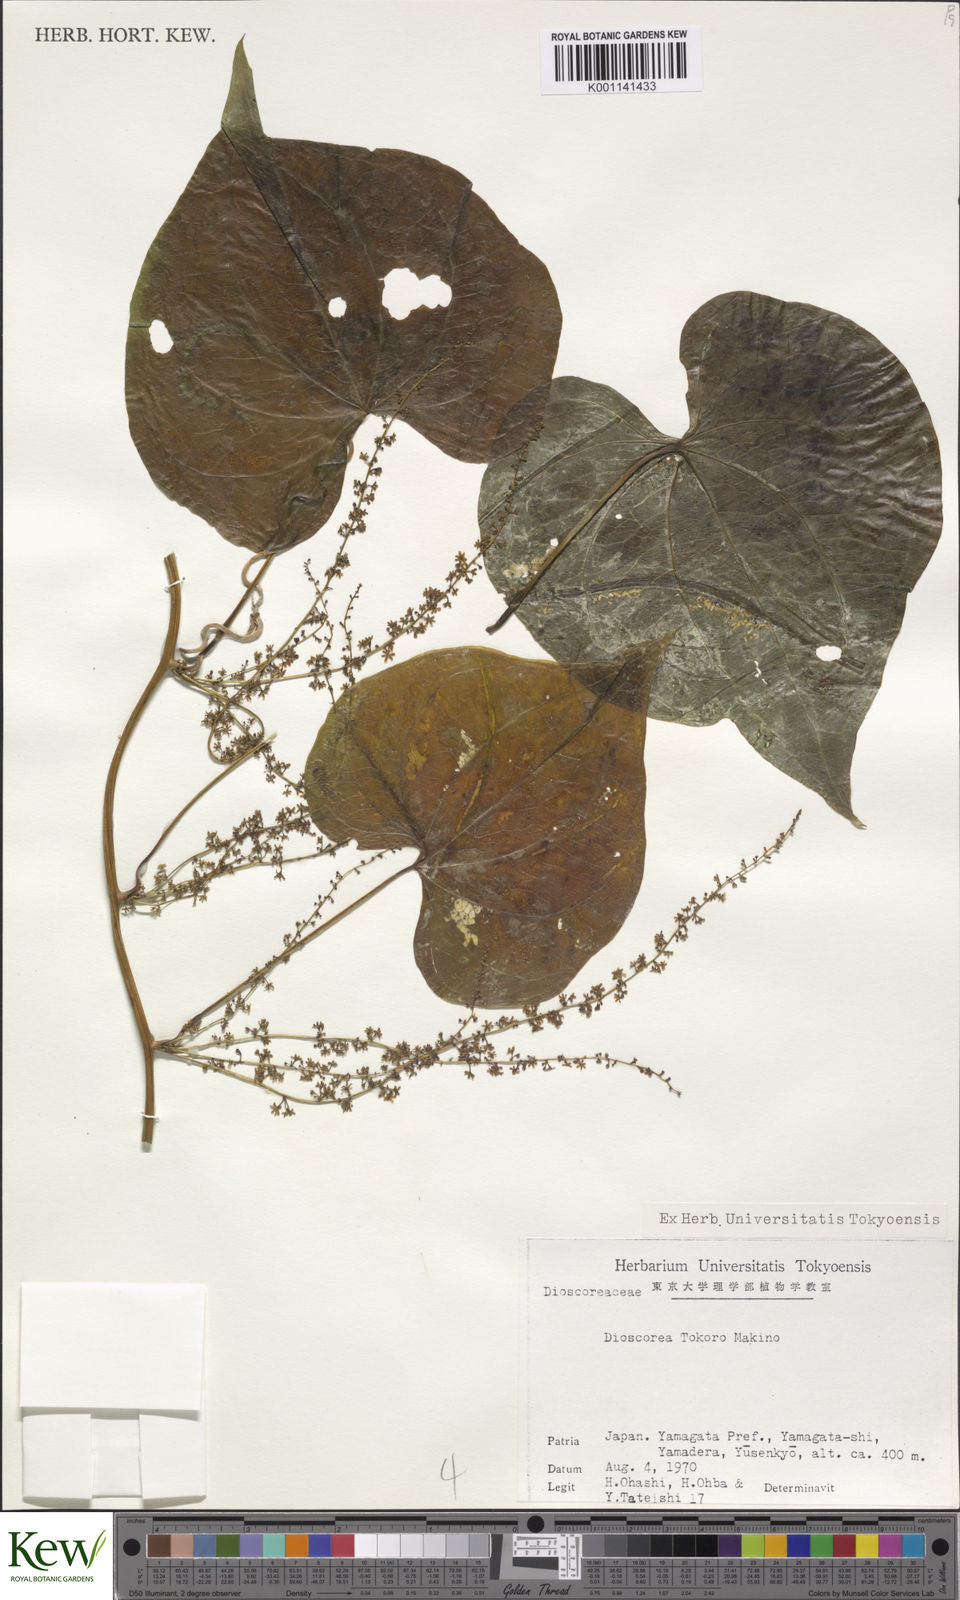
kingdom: Plantae
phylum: Tracheophyta
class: Liliopsida
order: Dioscoreales
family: Dioscoreaceae
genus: Dioscorea
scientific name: Dioscorea tokoro
